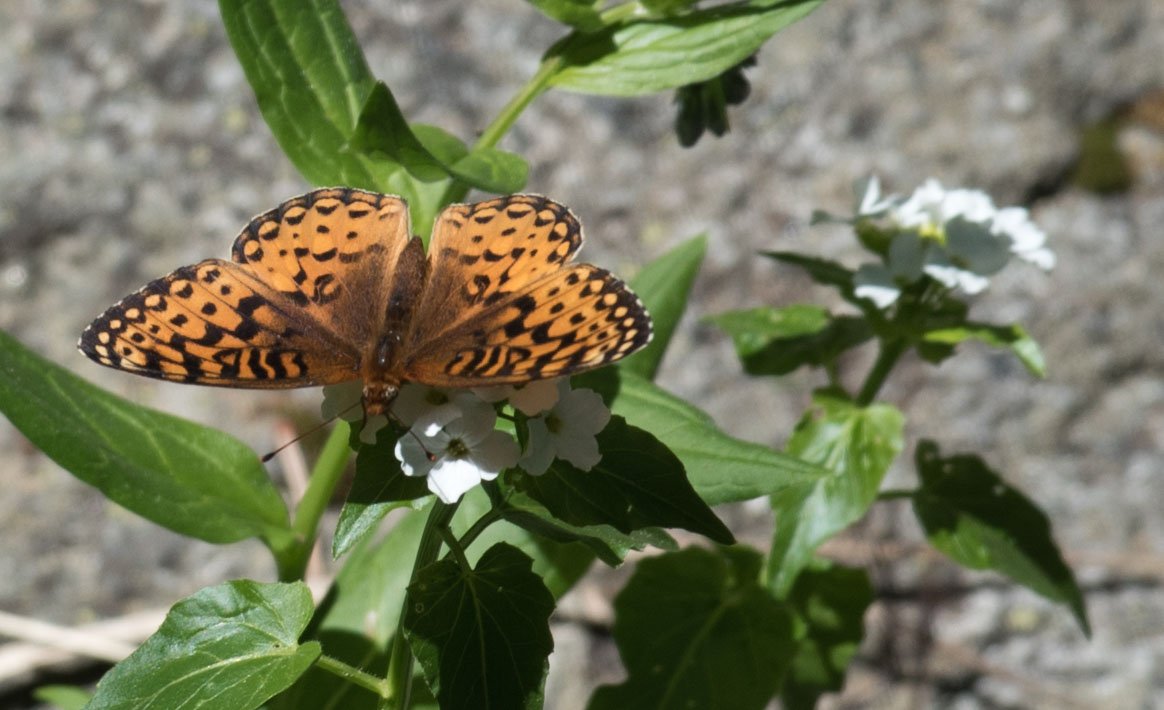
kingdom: Animalia
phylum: Arthropoda
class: Insecta
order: Lepidoptera
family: Nymphalidae
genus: Speyeria
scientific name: Speyeria atlantis
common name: Northwestern Fritillary
